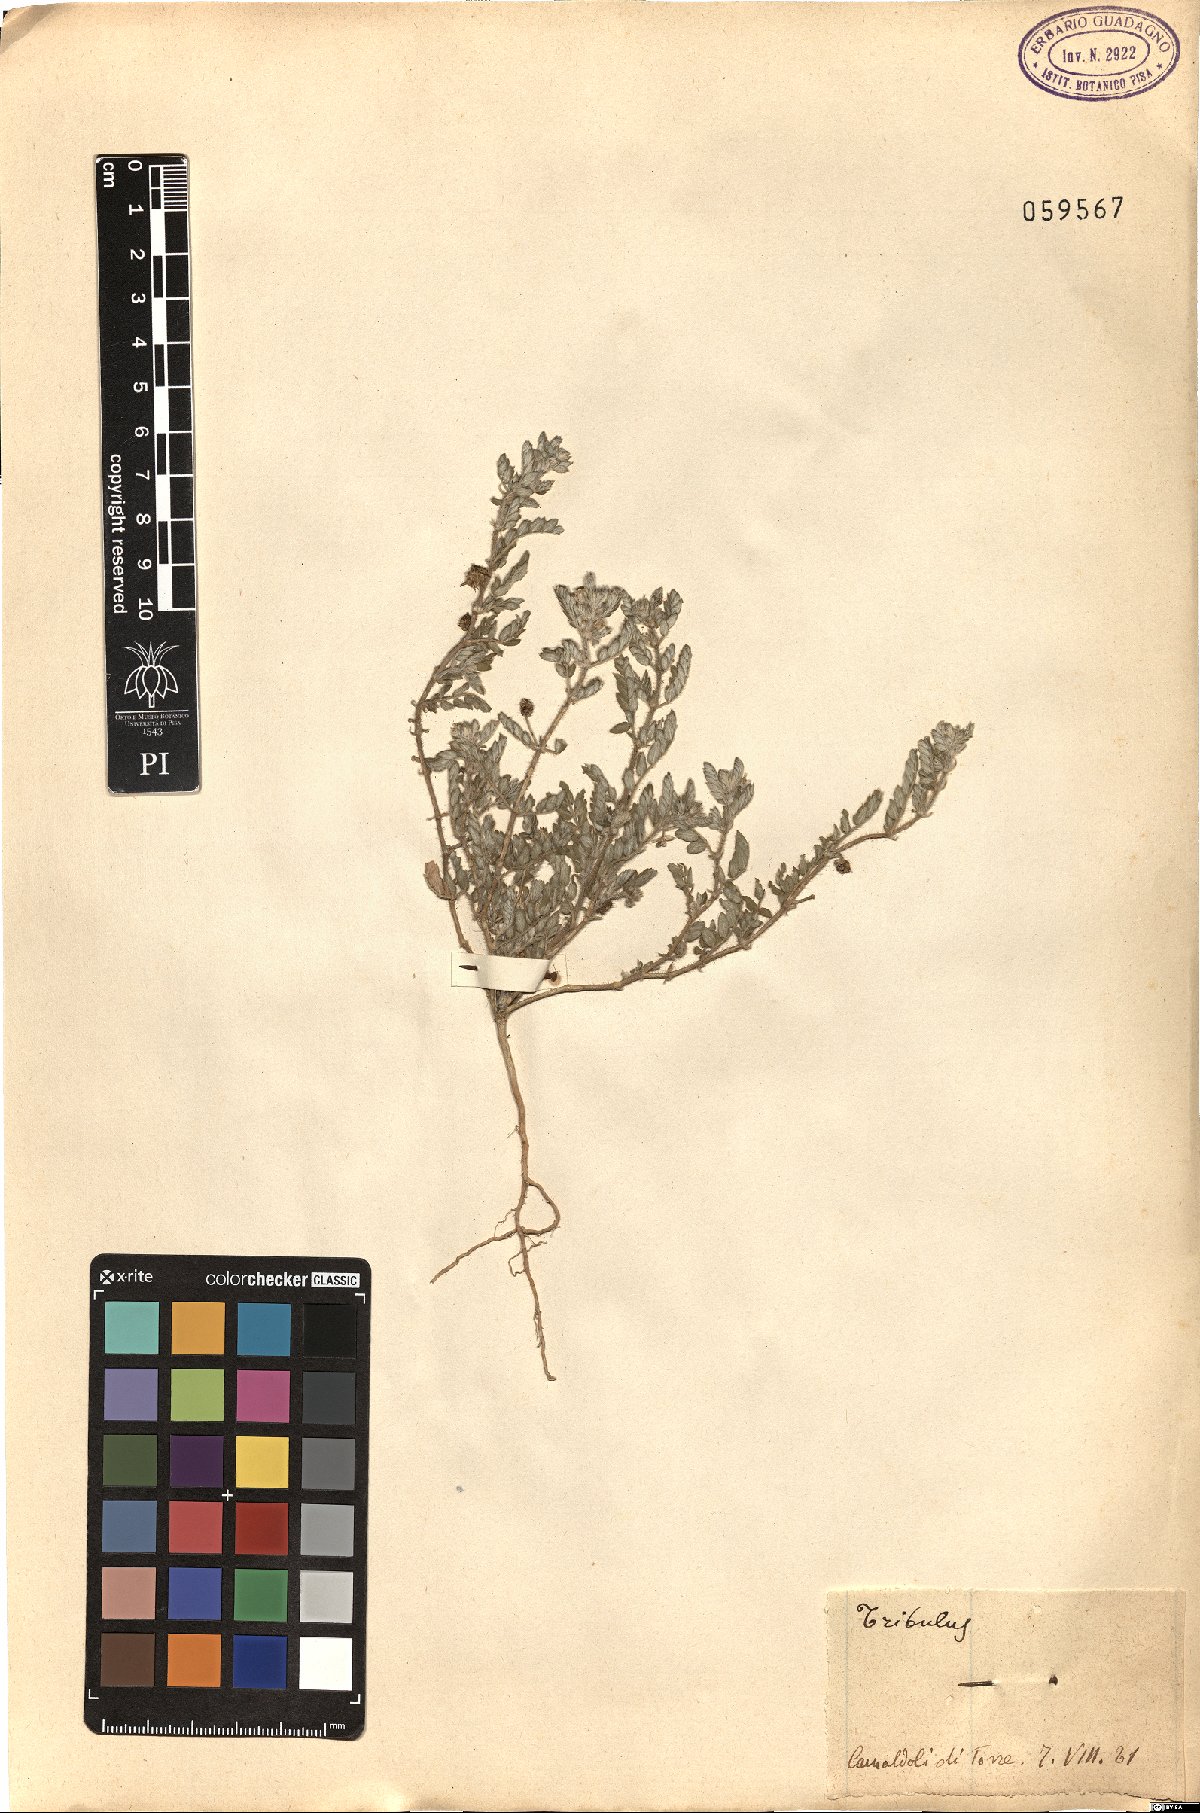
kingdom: Plantae
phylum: Tracheophyta
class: Magnoliopsida
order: Zygophyllales
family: Zygophyllaceae
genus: Tribulus
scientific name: Tribulus terrestris
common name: Puncturevine
